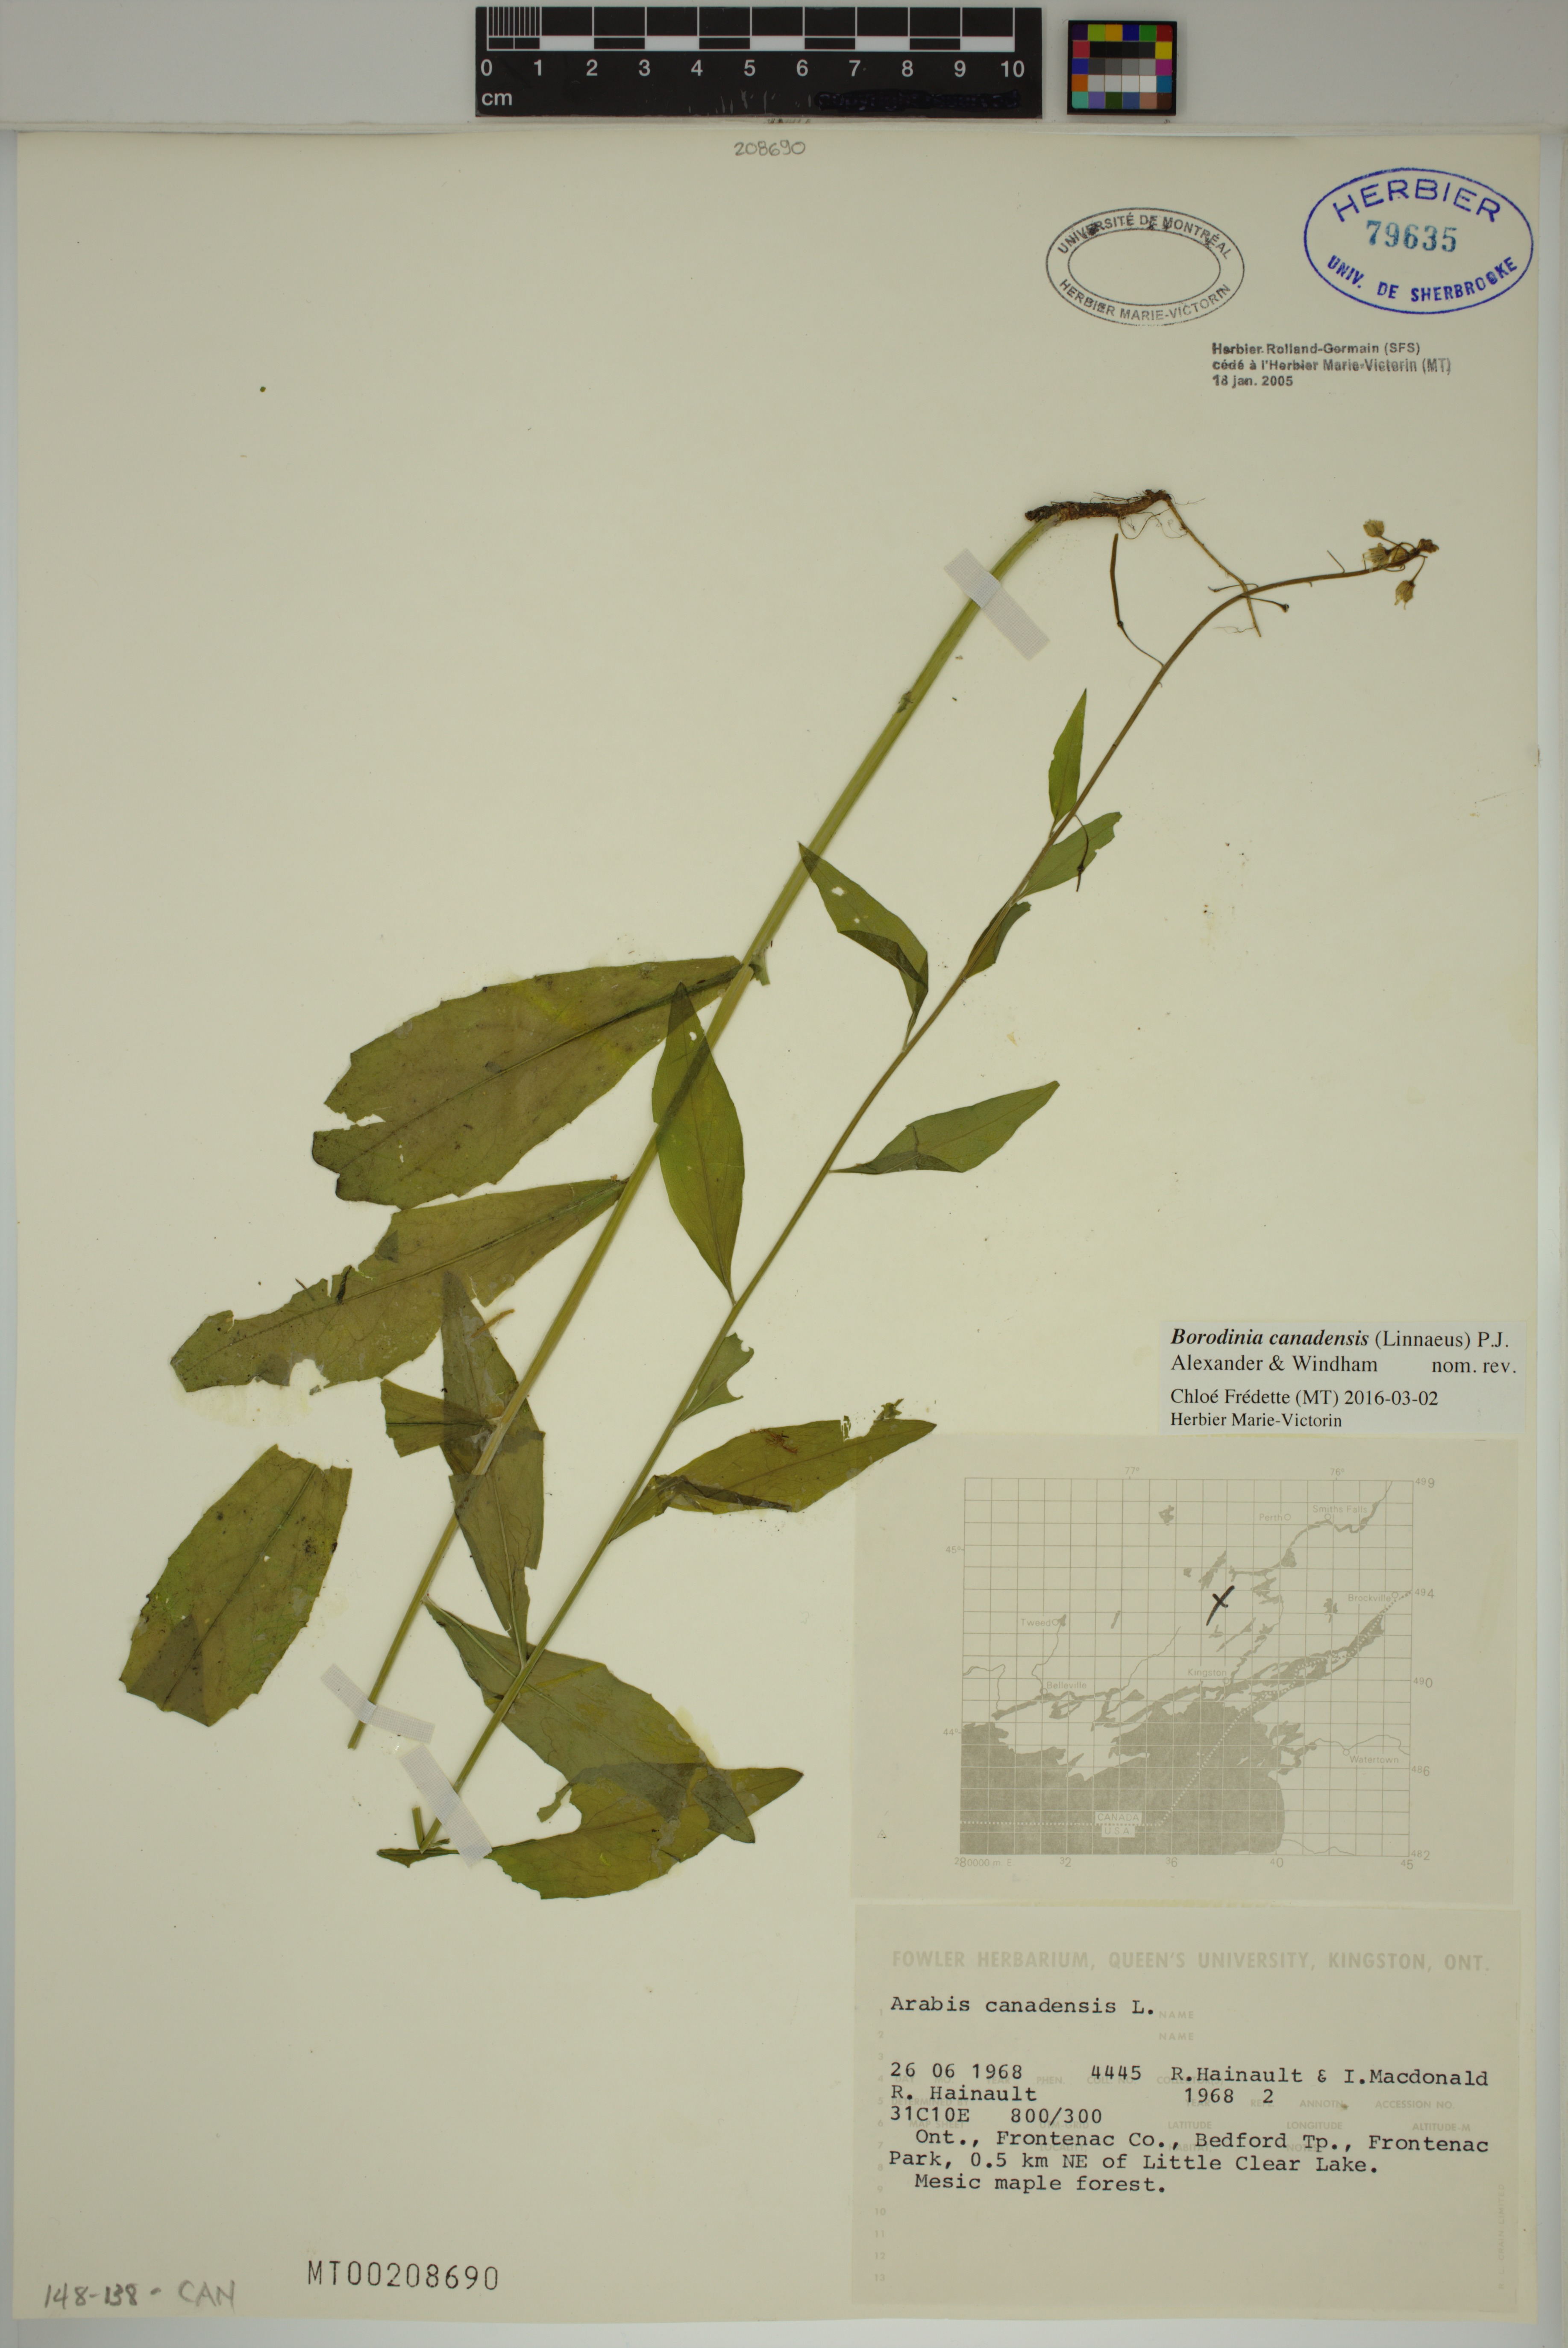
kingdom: Plantae
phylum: Tracheophyta
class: Magnoliopsida
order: Brassicales
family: Brassicaceae
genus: Borodinia
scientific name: Borodinia canadensis
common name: Sicklepod
